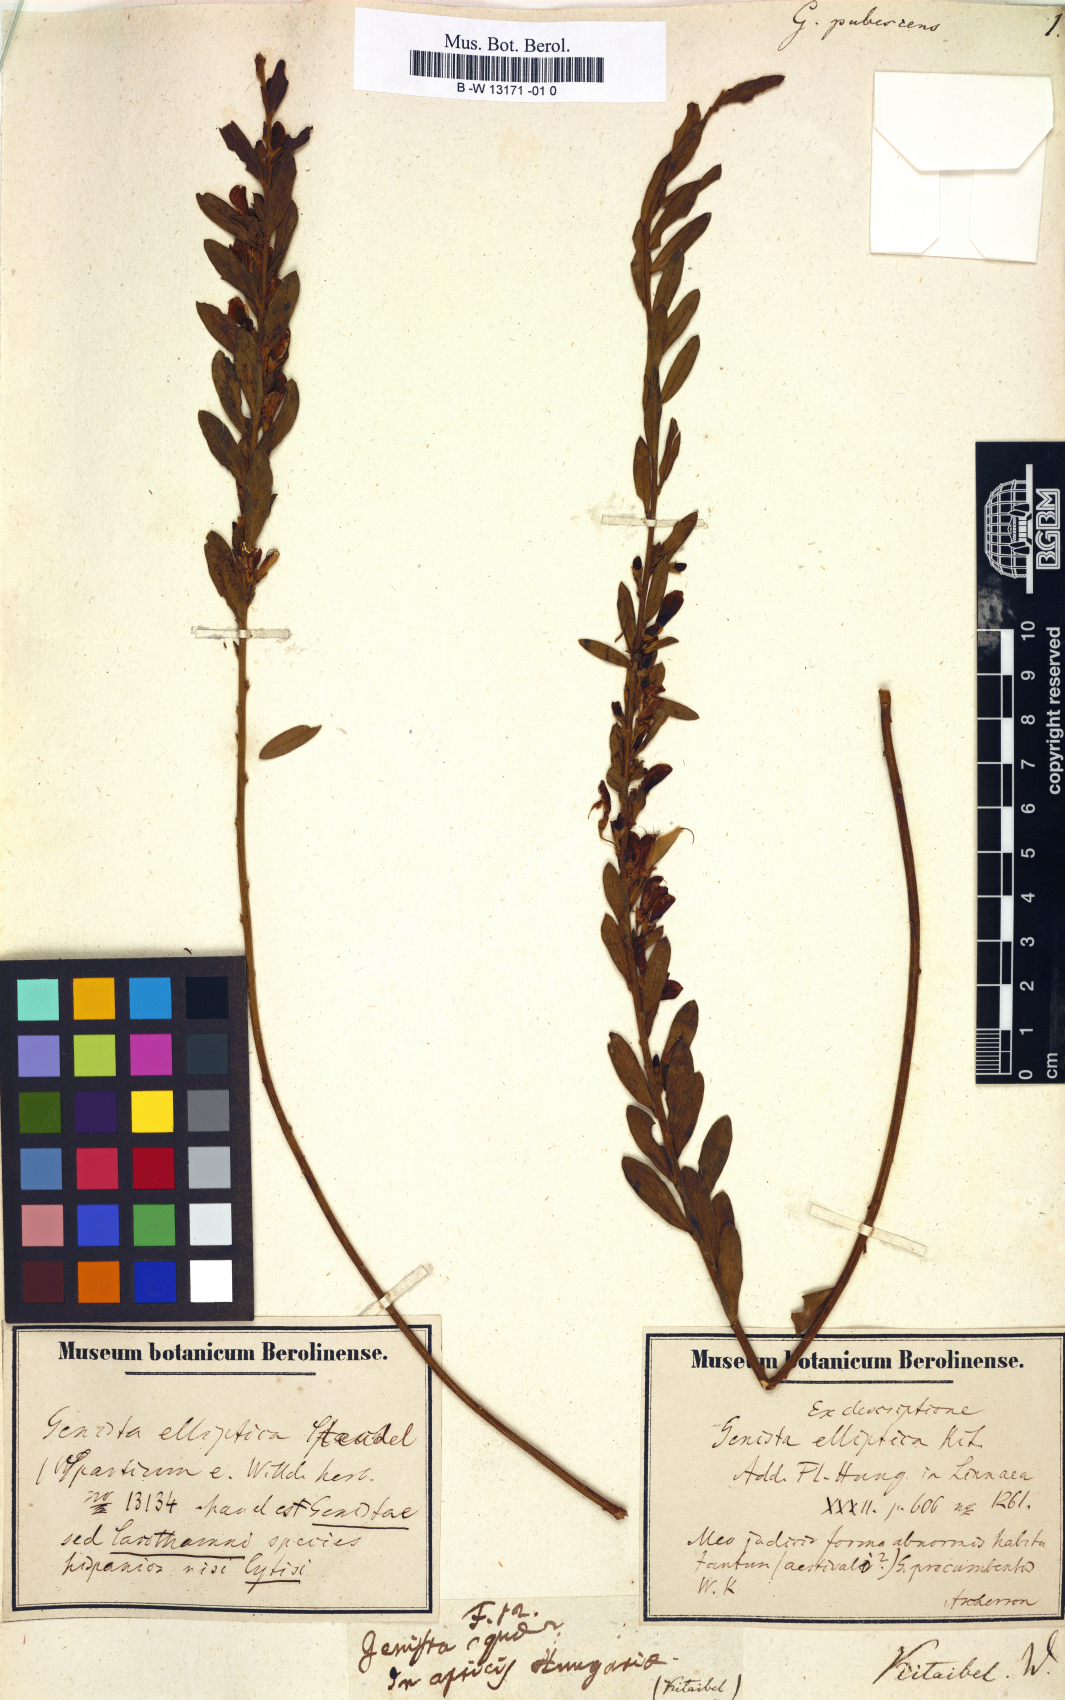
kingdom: Plantae
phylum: Tracheophyta
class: Magnoliopsida
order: Fabales
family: Fabaceae
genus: Genista
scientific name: Genista pubescens
